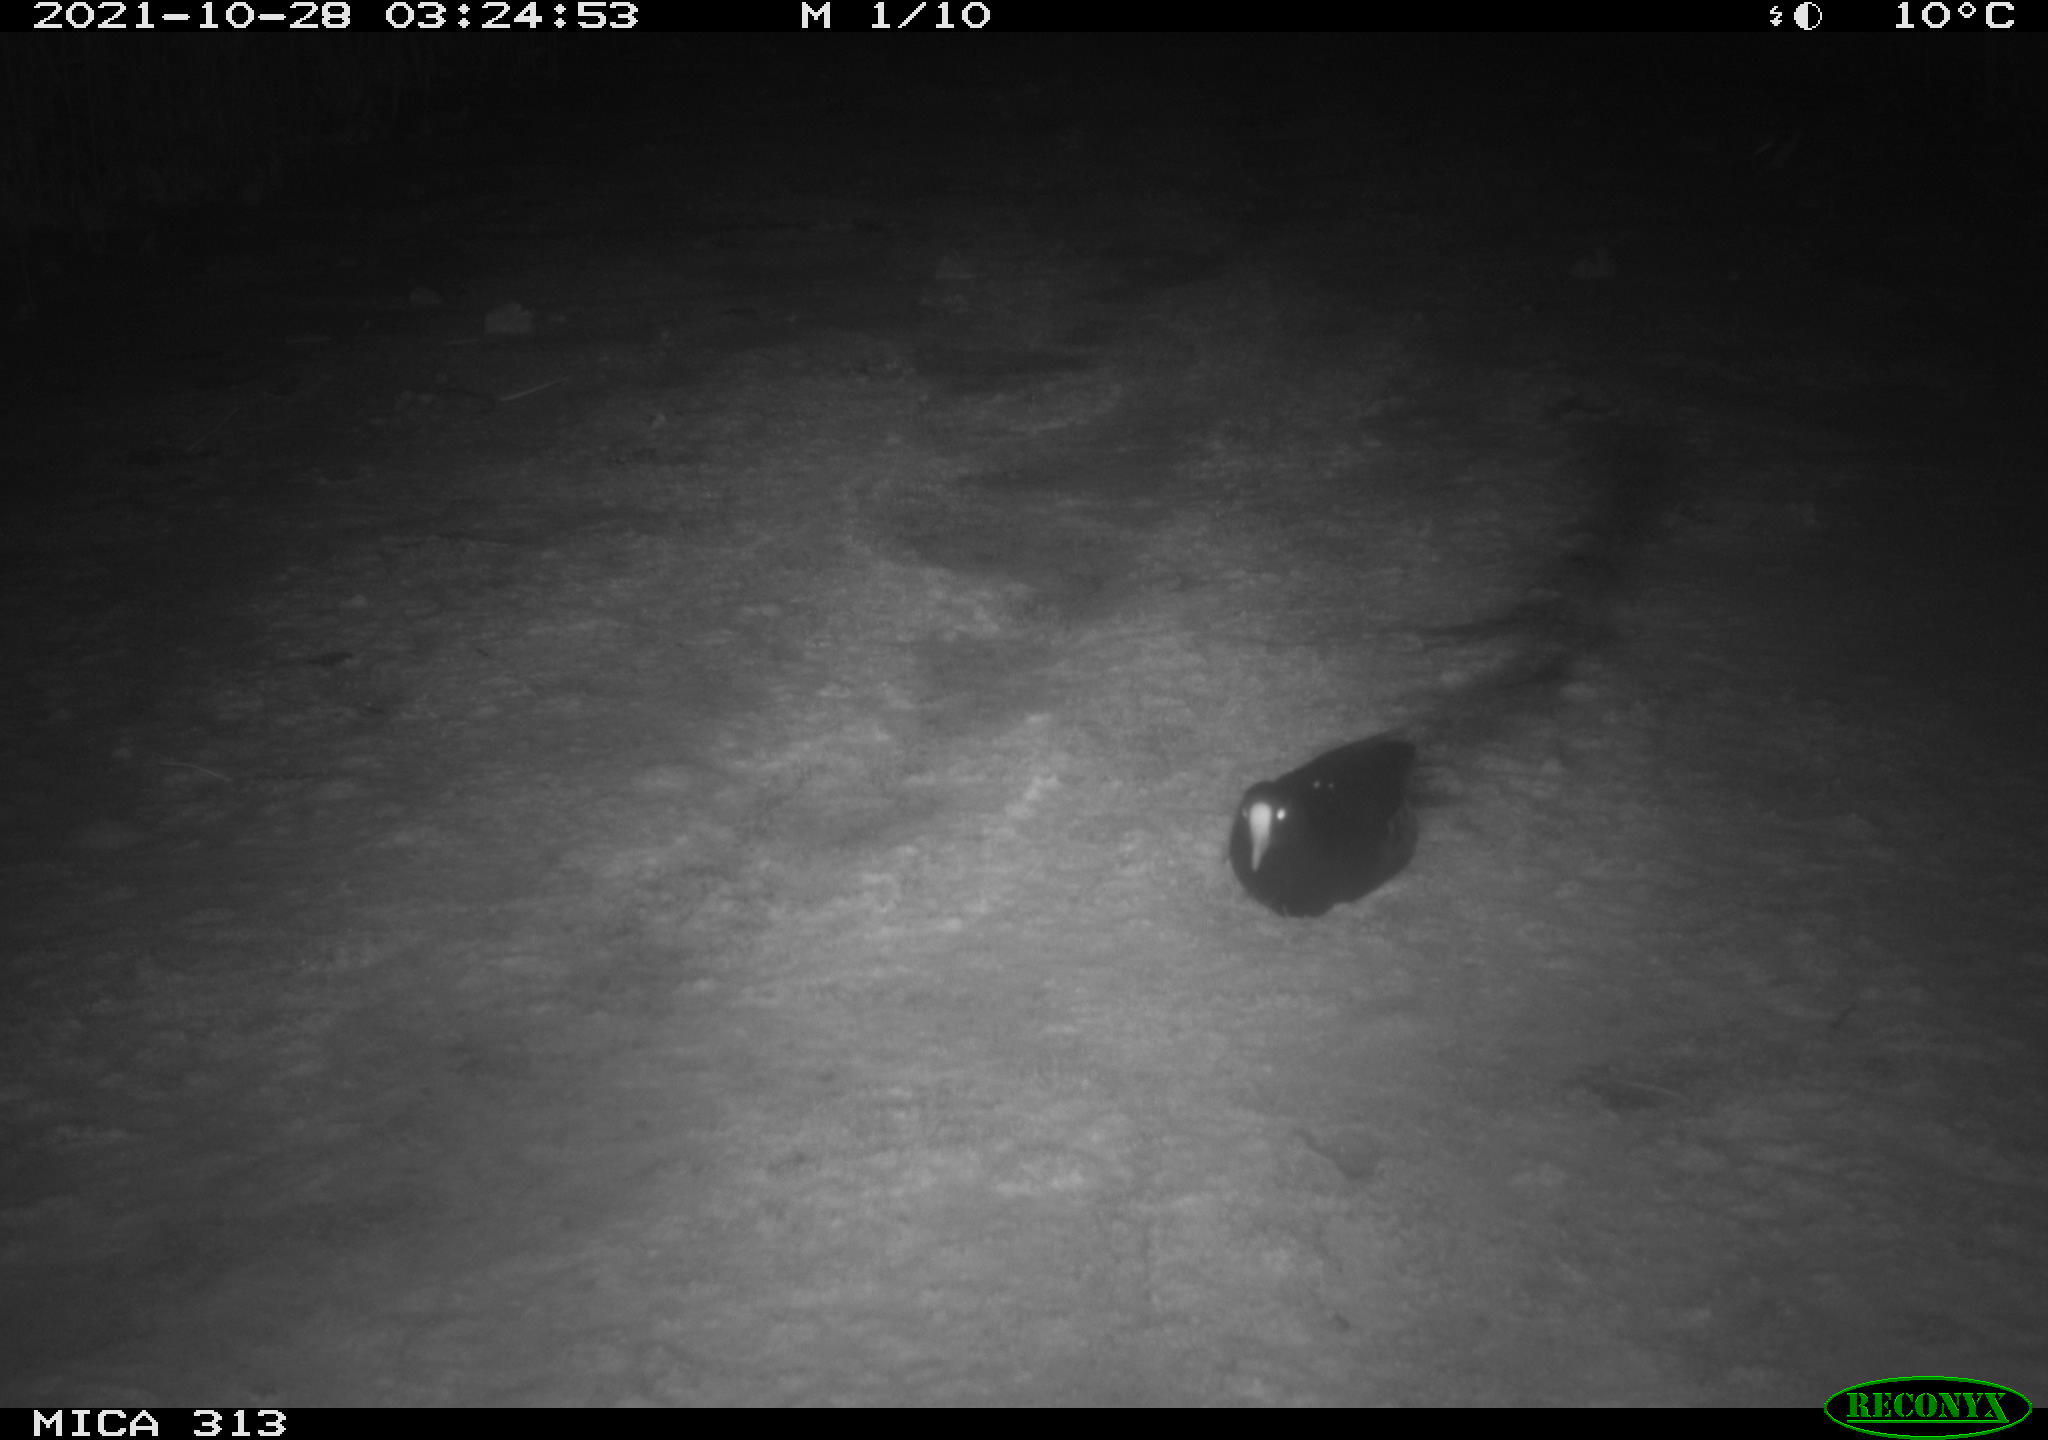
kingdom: Animalia
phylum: Chordata
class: Aves
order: Gruiformes
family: Rallidae
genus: Fulica
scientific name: Fulica atra
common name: Eurasian coot
